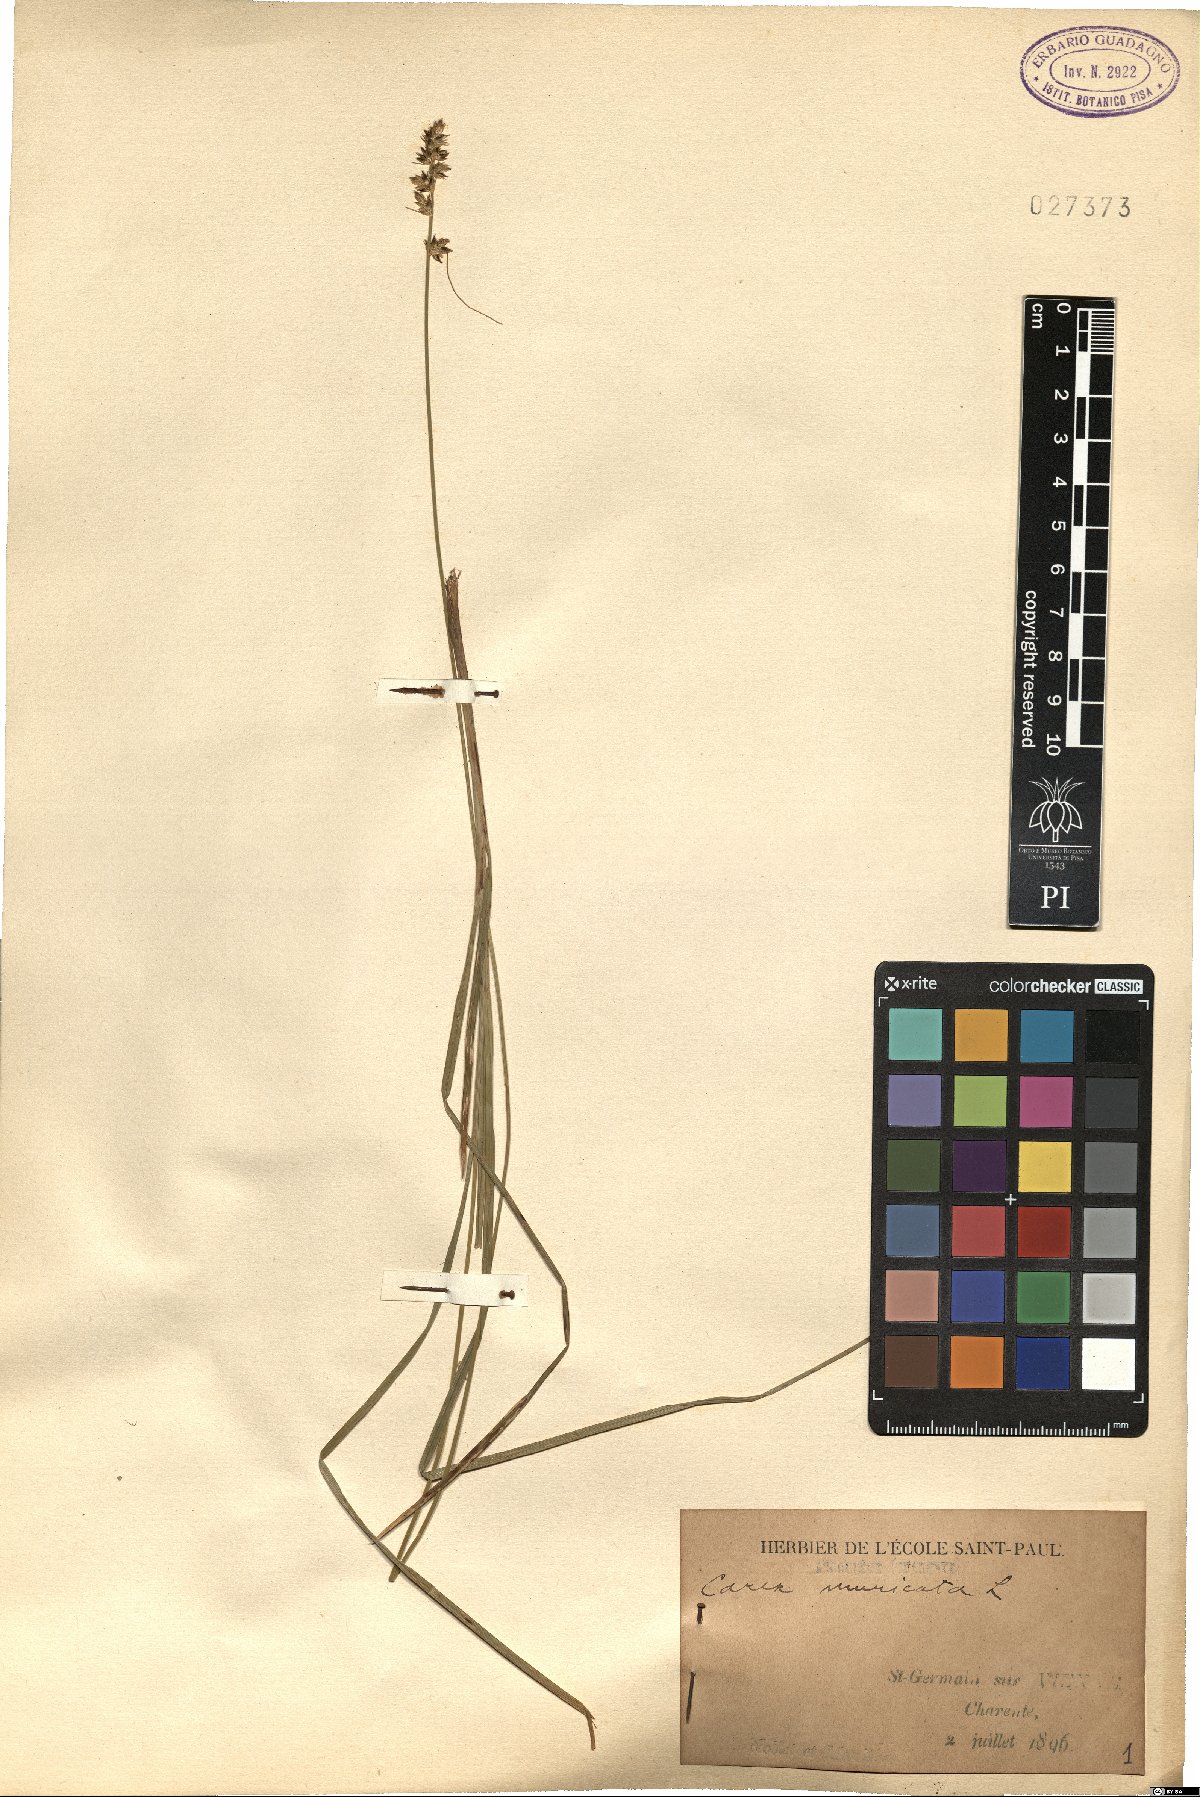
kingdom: Plantae
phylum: Tracheophyta
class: Liliopsida
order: Poales
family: Cyperaceae
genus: Carex
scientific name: Carex muricata
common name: Rough sedge
